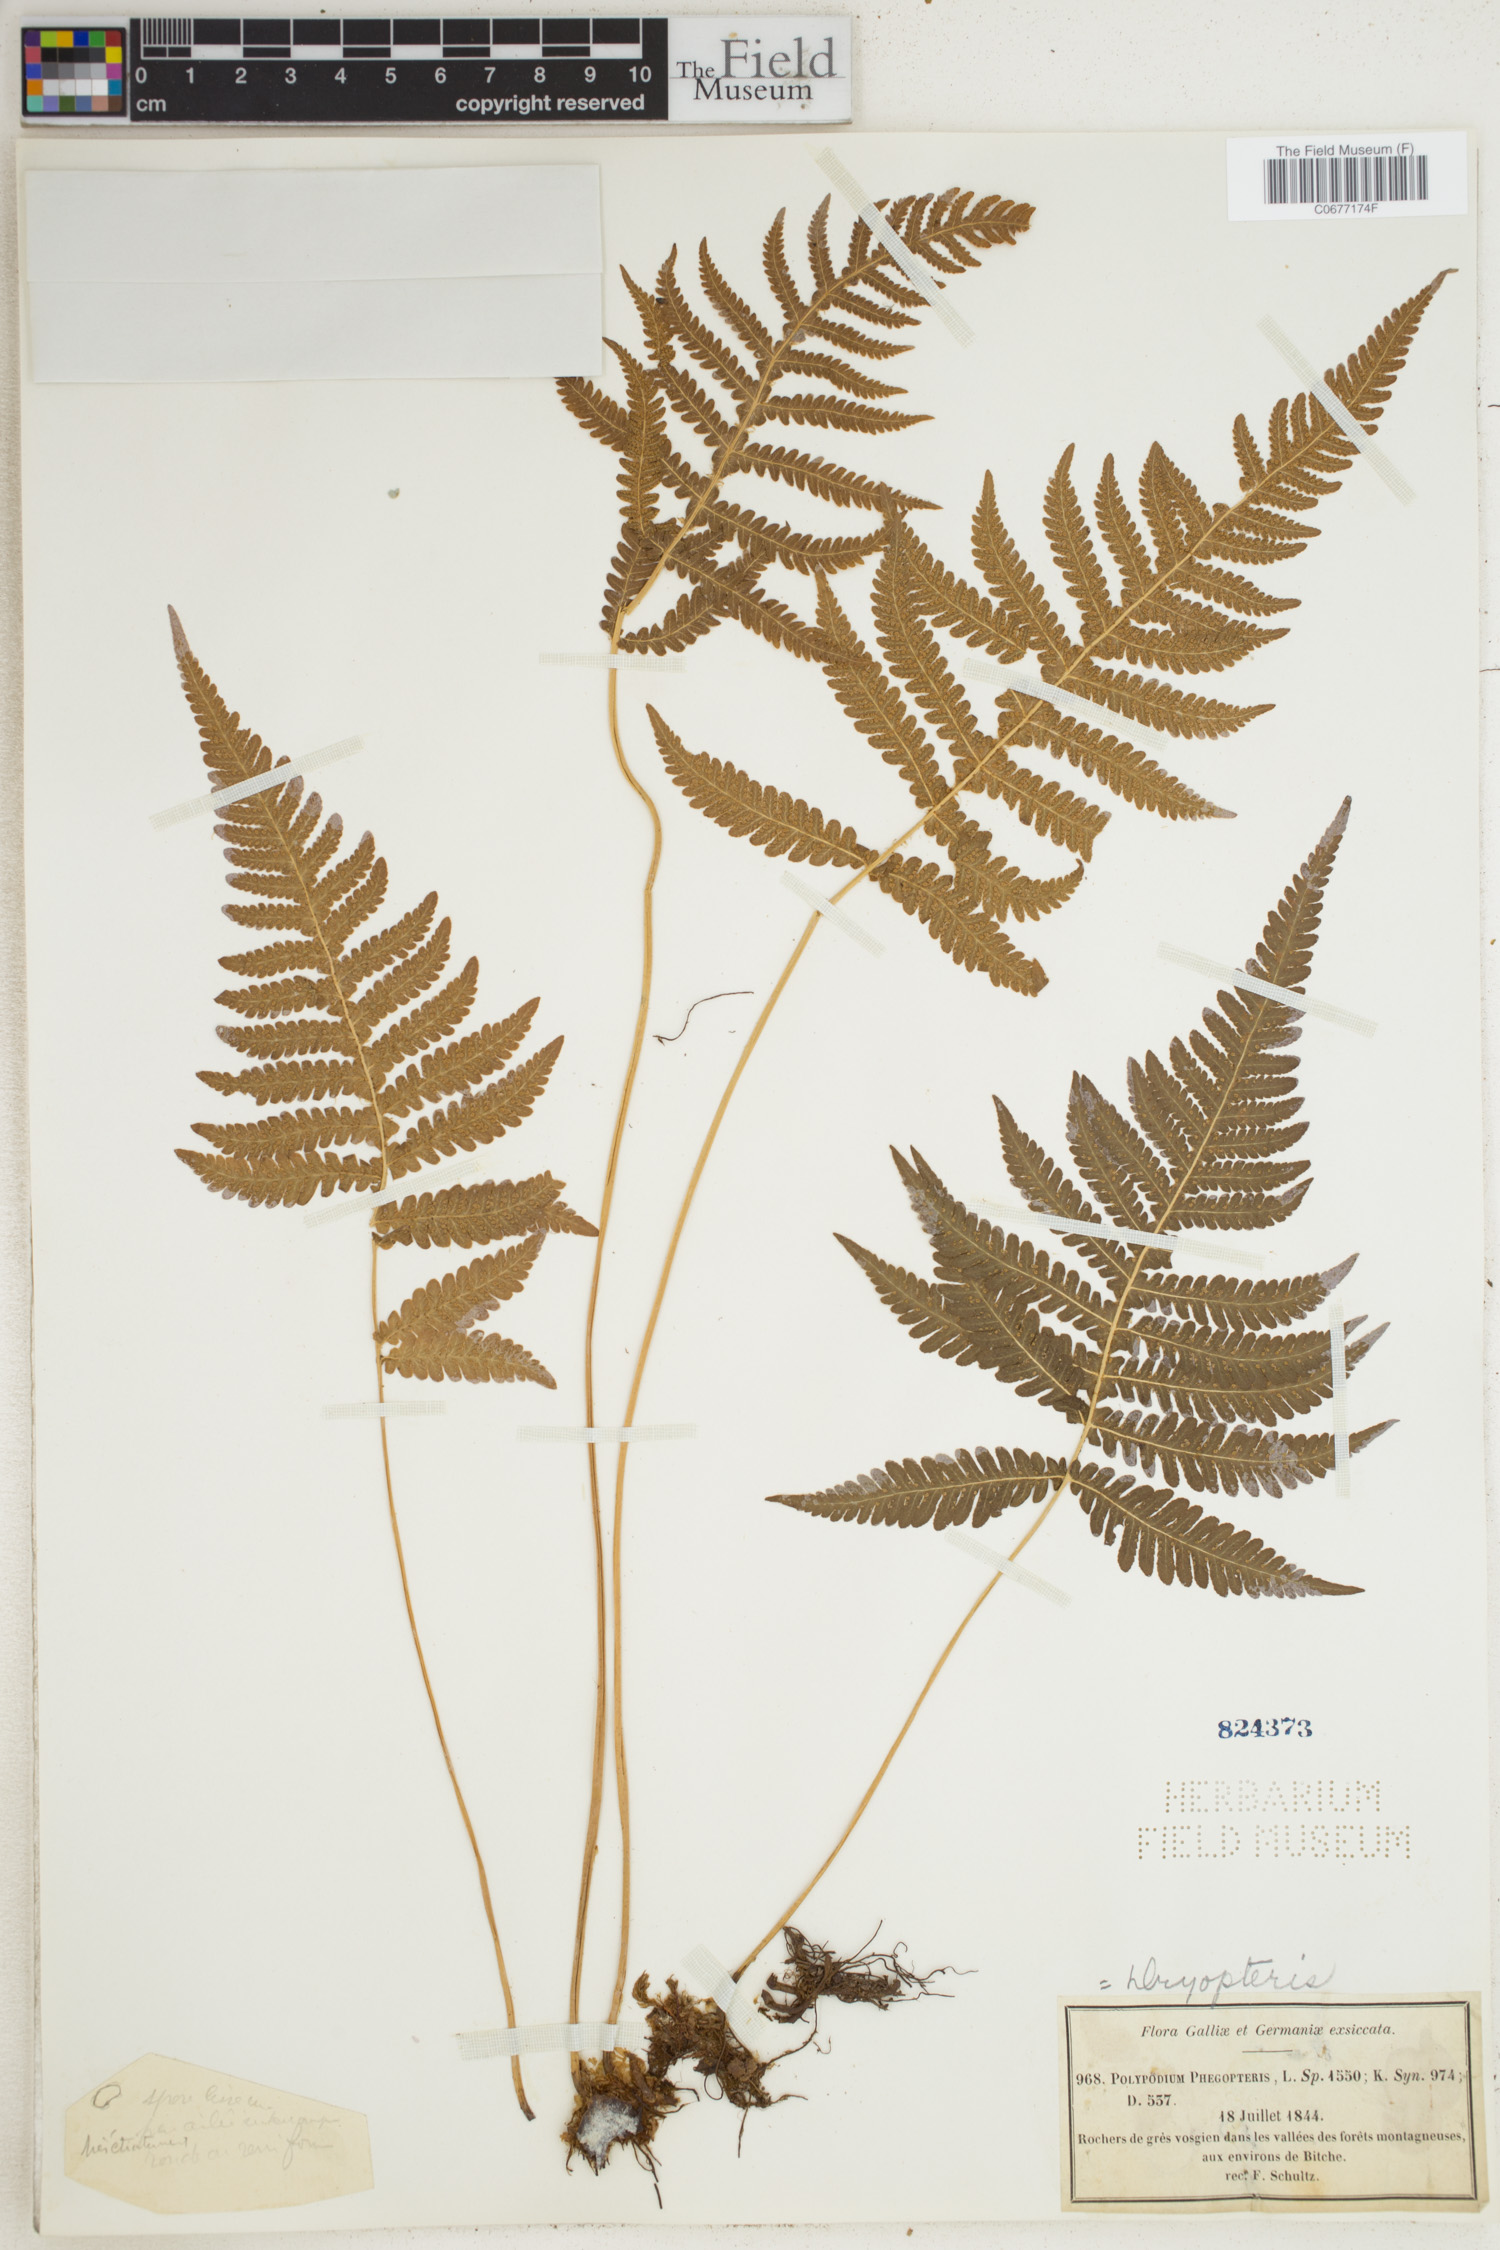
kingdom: Plantae
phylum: Tracheophyta
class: Polypodiopsida
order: Polypodiales
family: Thelypteridaceae
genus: Phegopteris
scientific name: Phegopteris connectilis
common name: Beech fern
